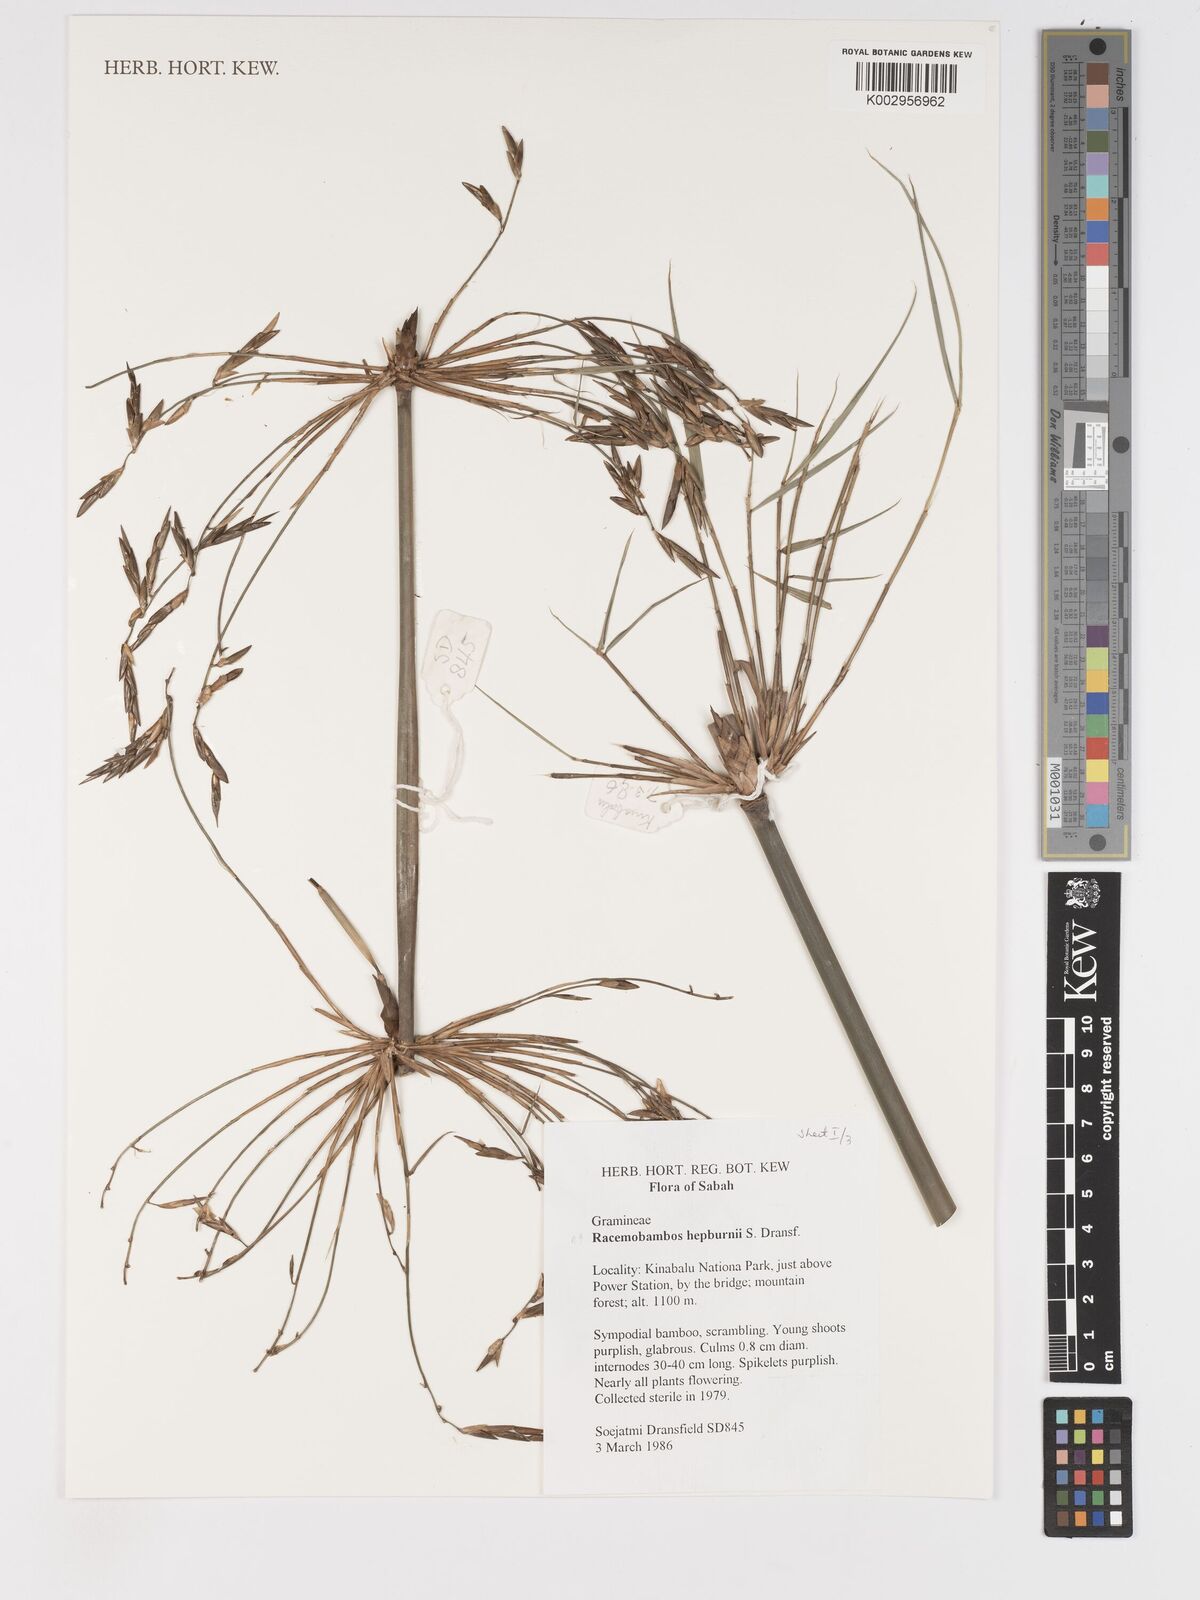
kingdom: Plantae
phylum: Tracheophyta
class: Liliopsida
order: Poales
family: Poaceae
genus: Racemobambos
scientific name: Racemobambos hepburnii
